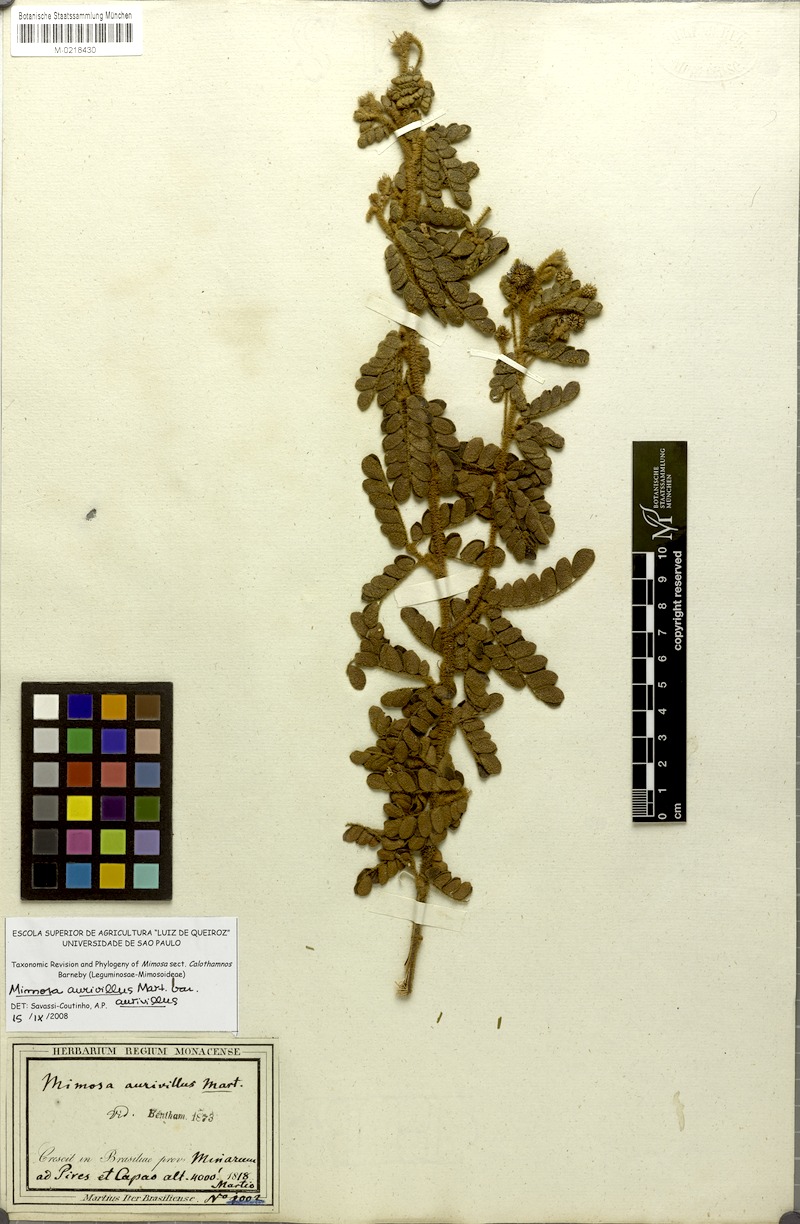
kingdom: Plantae
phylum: Tracheophyta
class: Magnoliopsida
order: Fabales
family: Fabaceae
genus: Mimosa
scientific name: Mimosa aurivillus
